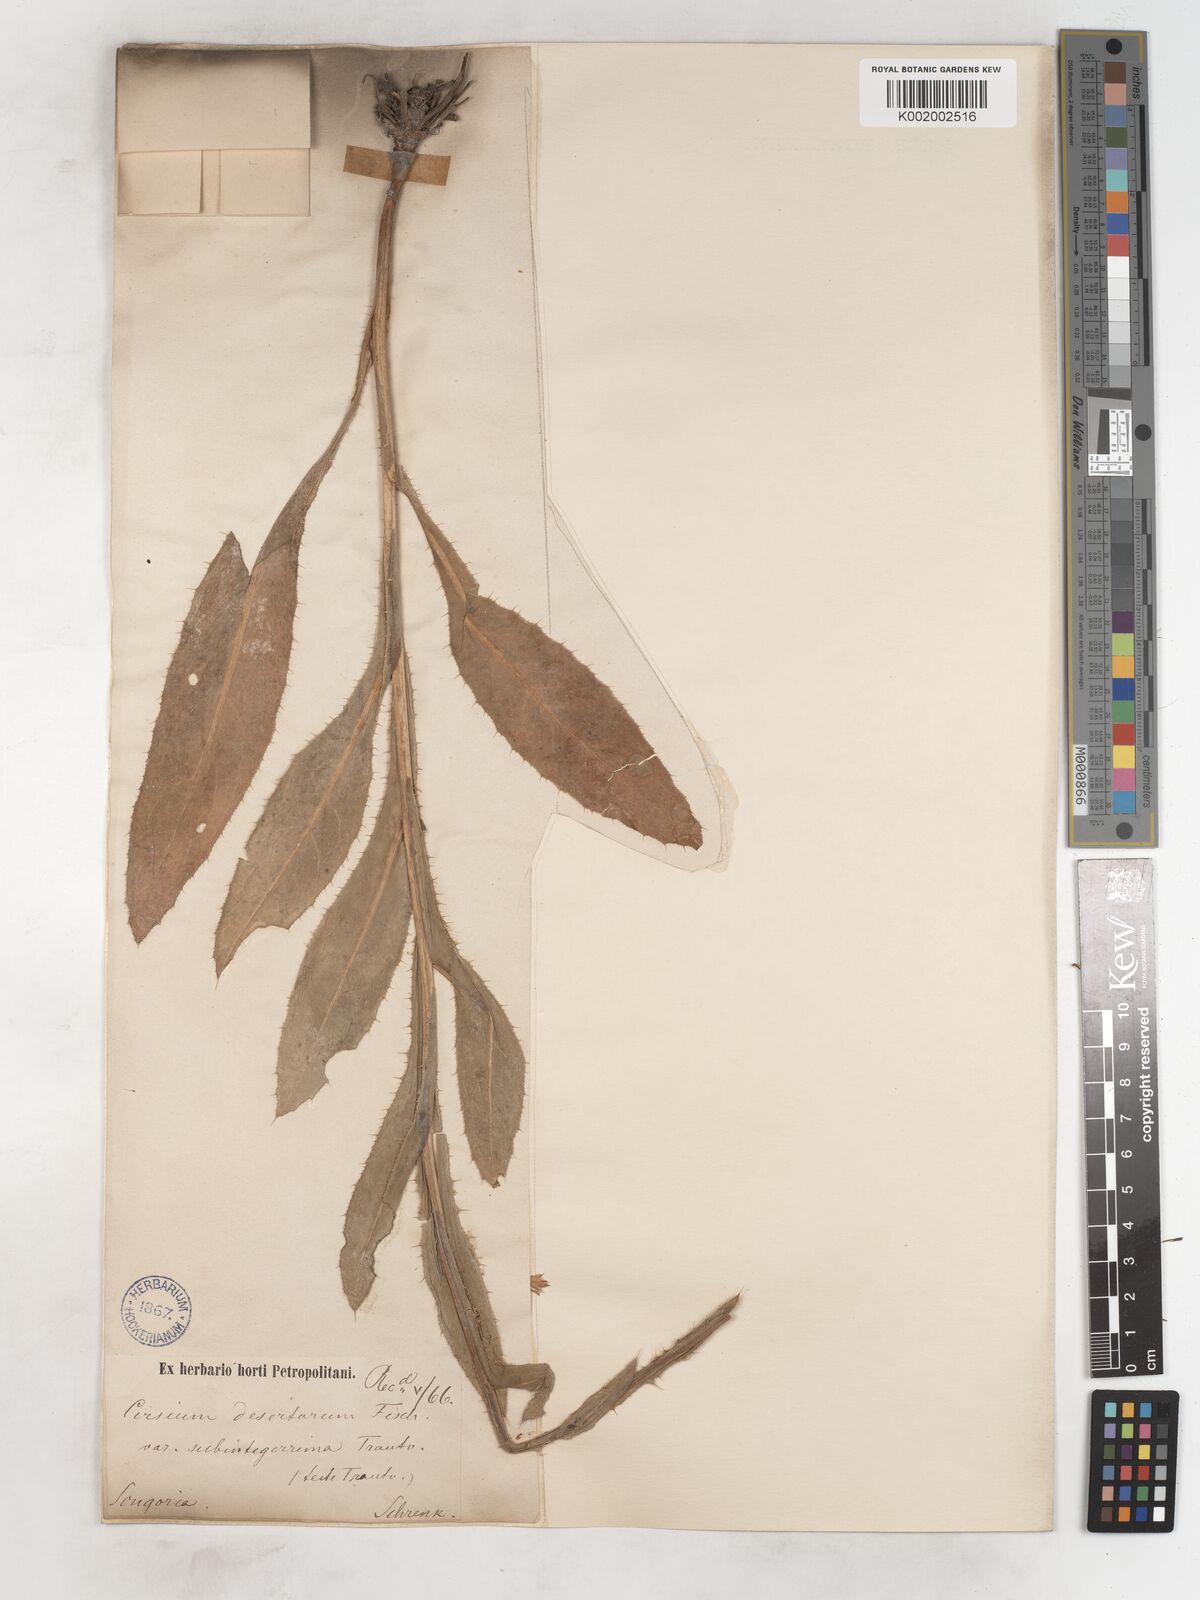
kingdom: Plantae
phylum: Tracheophyta
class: Magnoliopsida
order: Asterales
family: Asteraceae
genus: Cirsium
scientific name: Cirsium alatum
